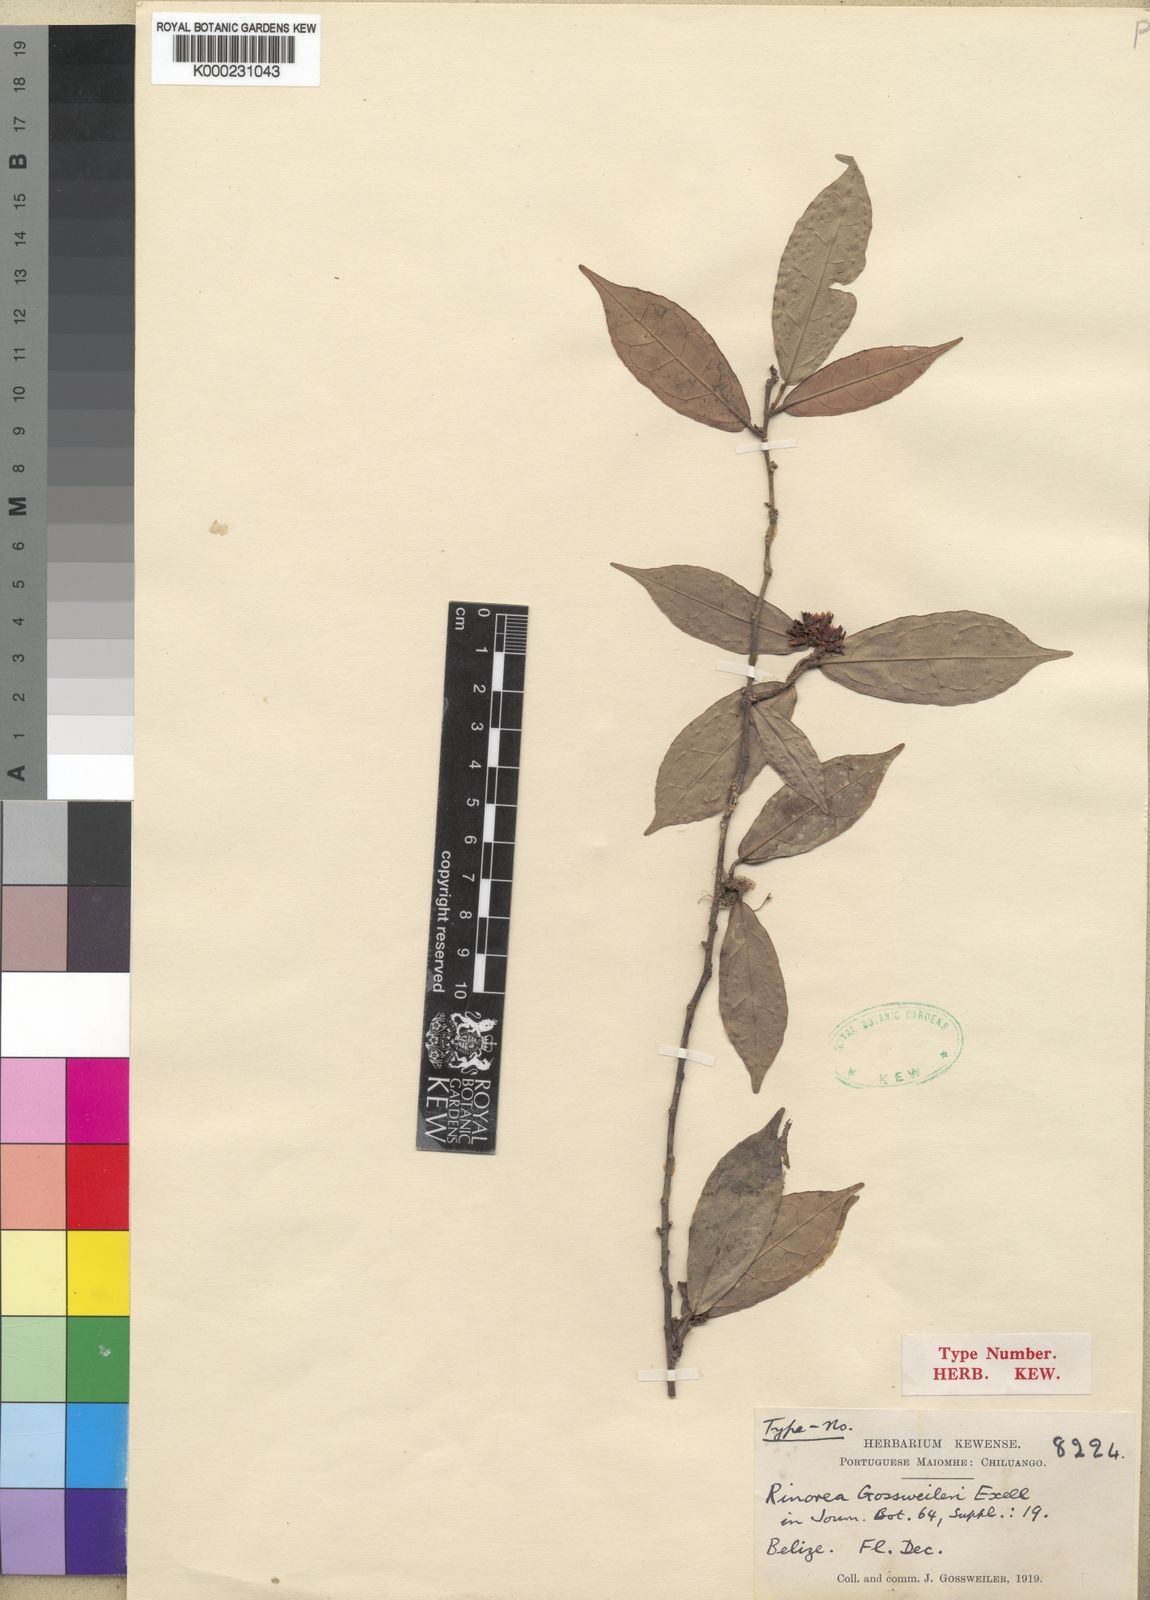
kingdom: Plantae
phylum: Tracheophyta
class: Magnoliopsida
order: Malpighiales
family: Violaceae
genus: Rinorea
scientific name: Rinorea gossweileri
